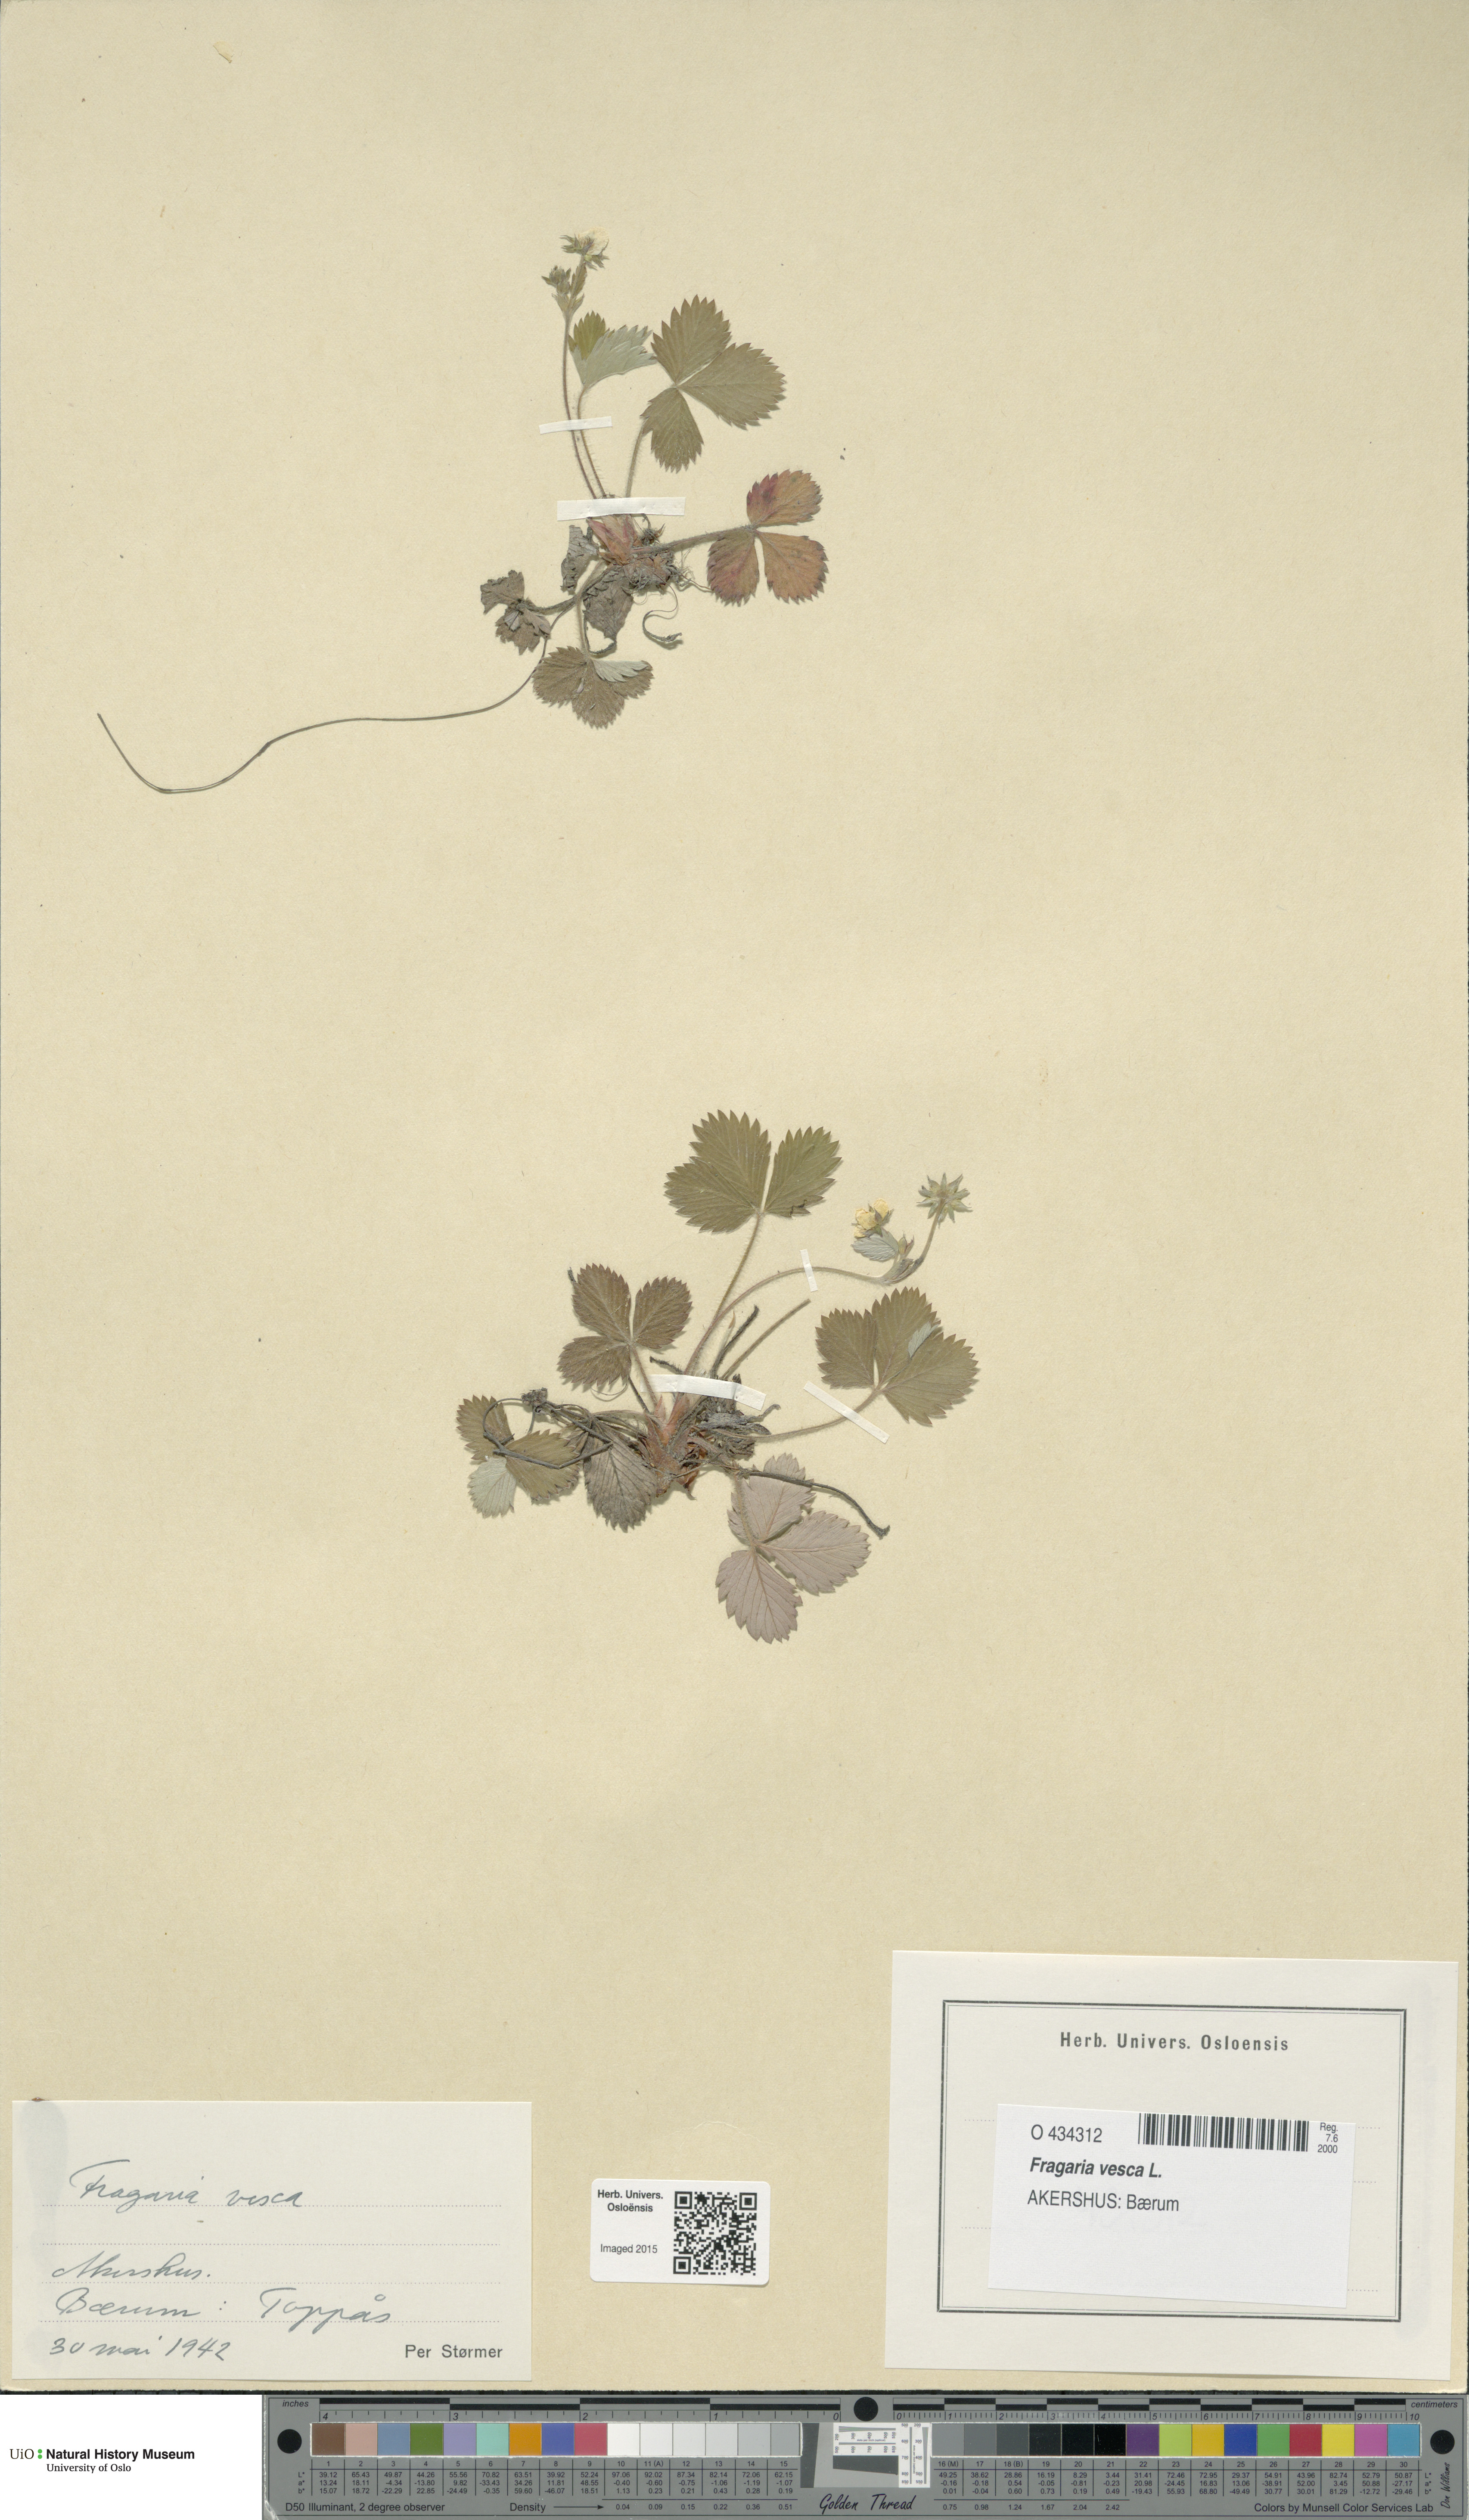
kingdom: Plantae
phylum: Tracheophyta
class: Magnoliopsida
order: Rosales
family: Rosaceae
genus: Fragaria
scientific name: Fragaria vesca
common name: Wild strawberry
